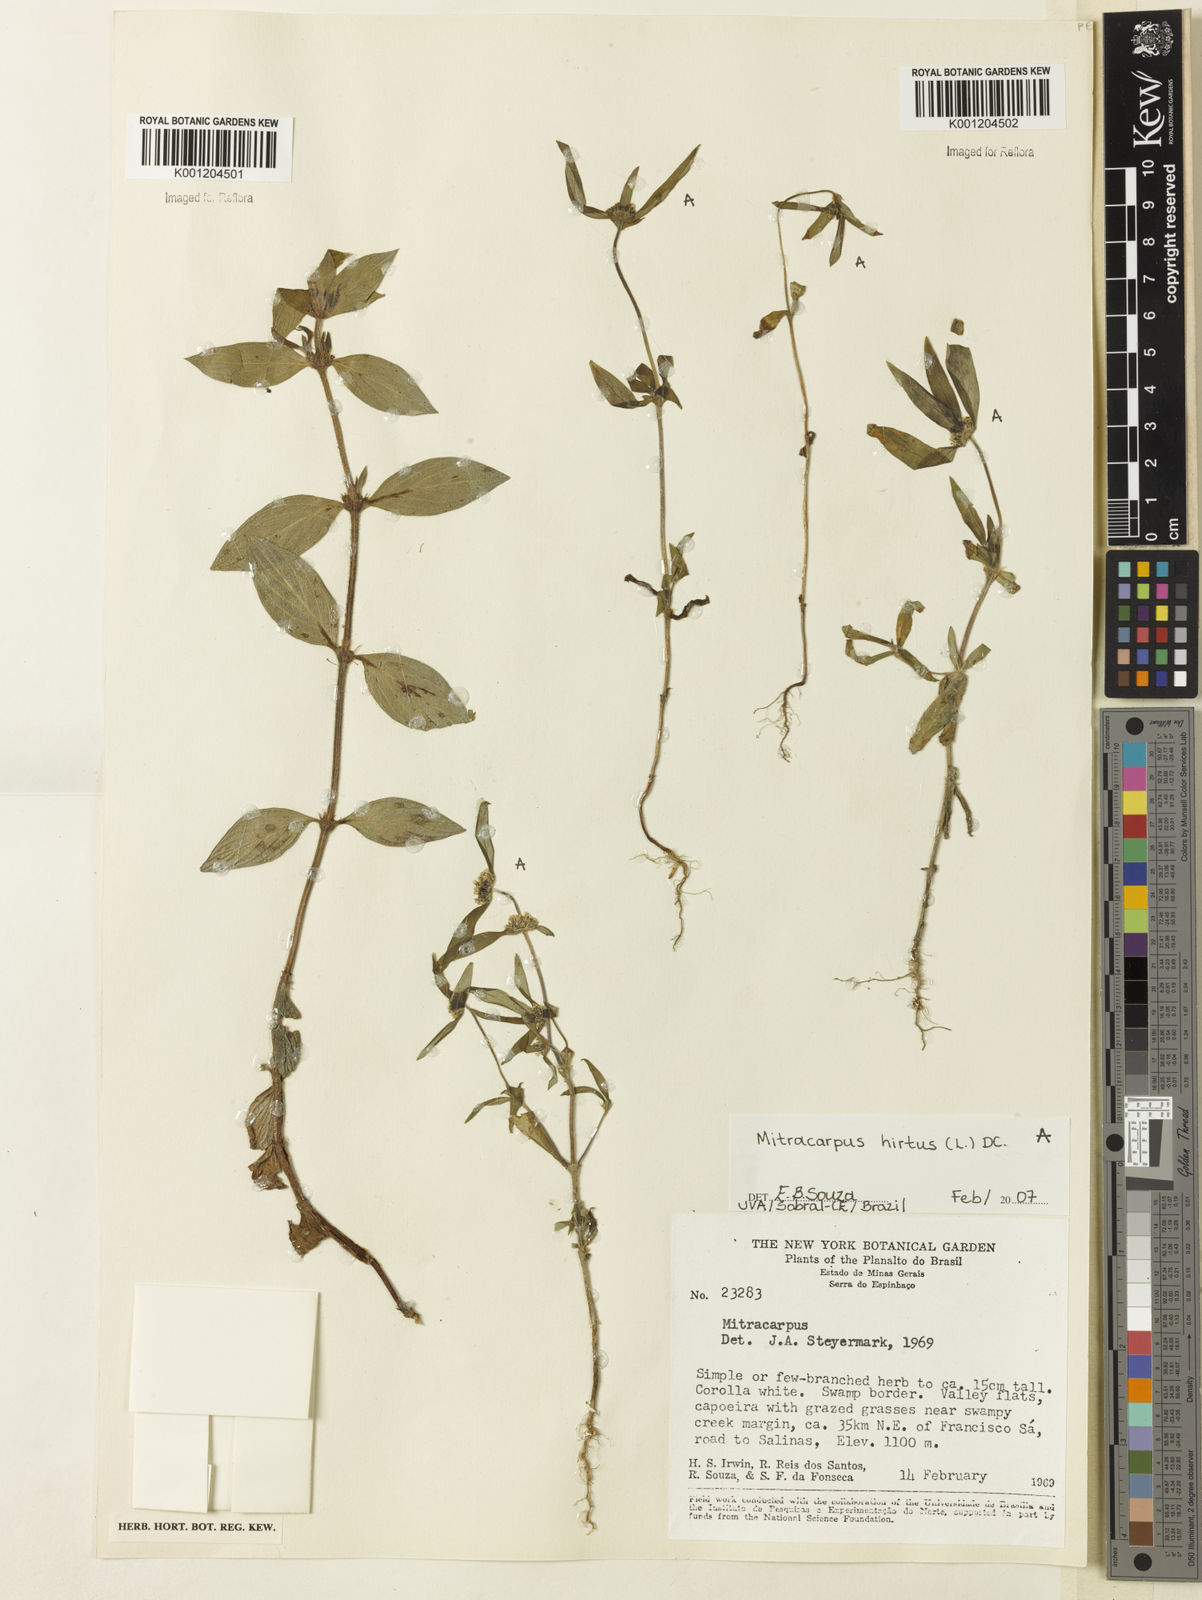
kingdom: Plantae
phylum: Tracheophyta
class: Magnoliopsida
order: Gentianales
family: Rubiaceae
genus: Mitracarpus
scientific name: Mitracarpus hirtus
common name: Tropical girdlepod
